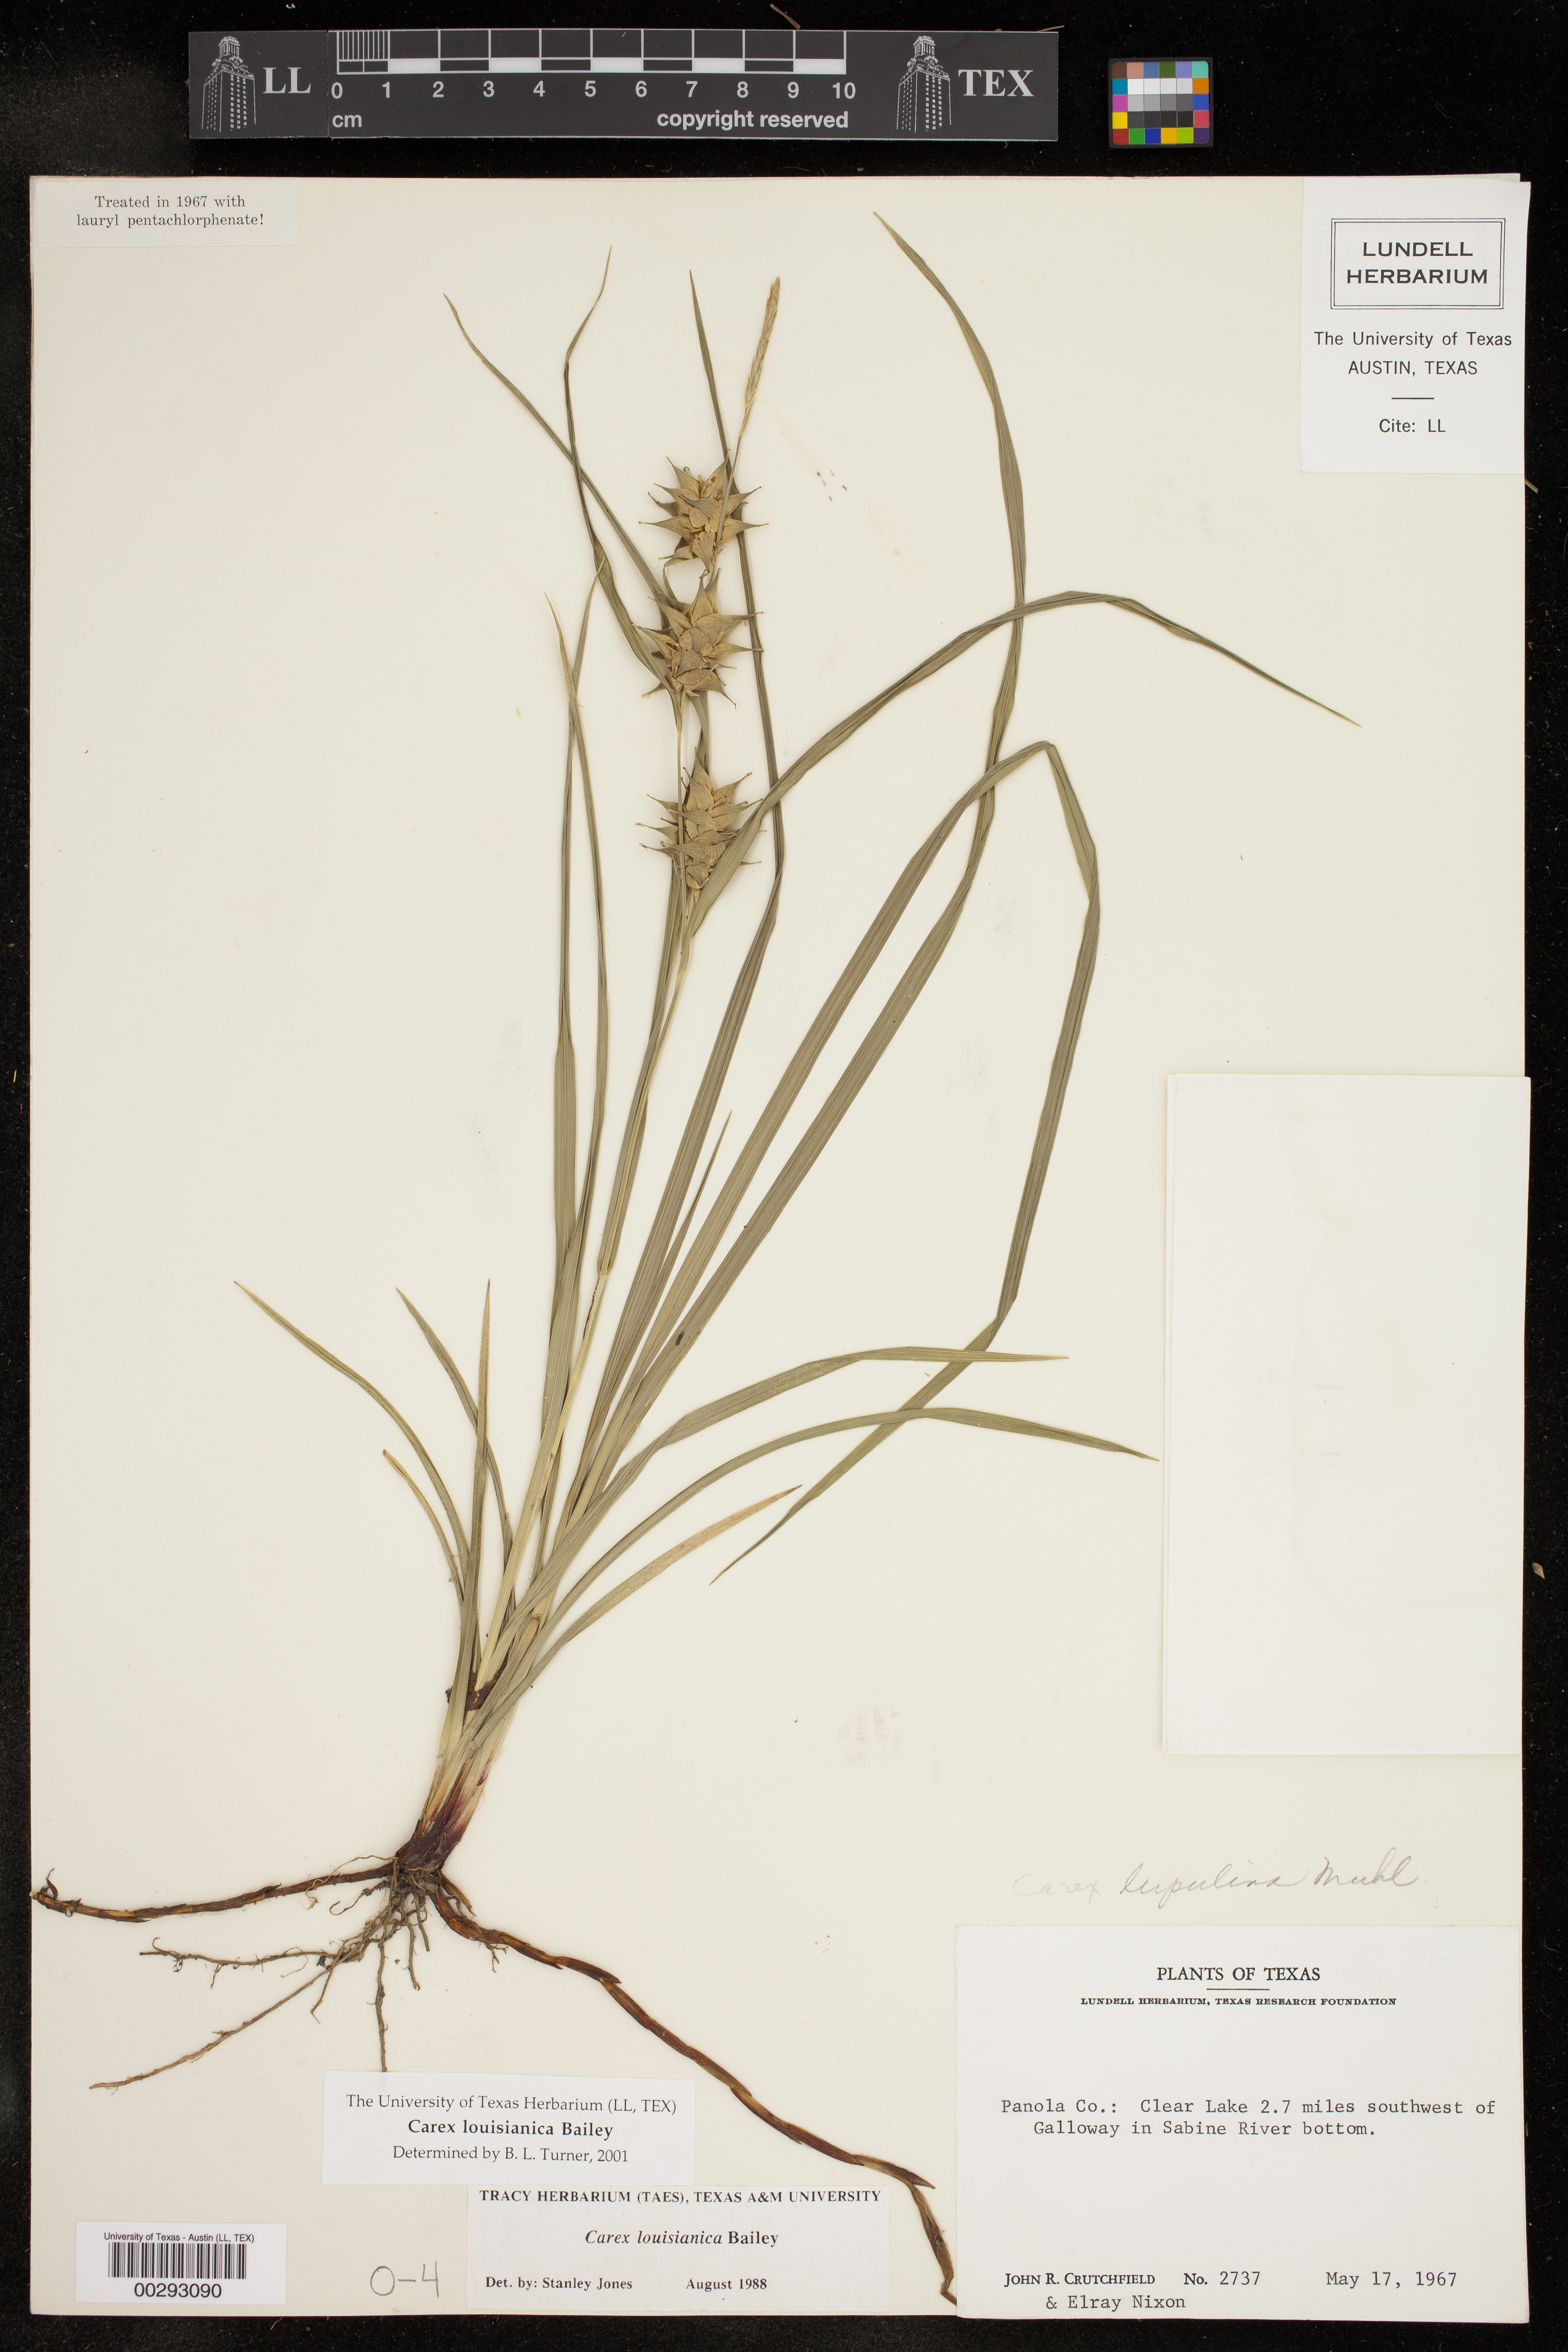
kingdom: Plantae
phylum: Tracheophyta
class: Liliopsida
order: Poales
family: Cyperaceae
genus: Carex
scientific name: Carex louisianica
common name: Louisiana sedge
